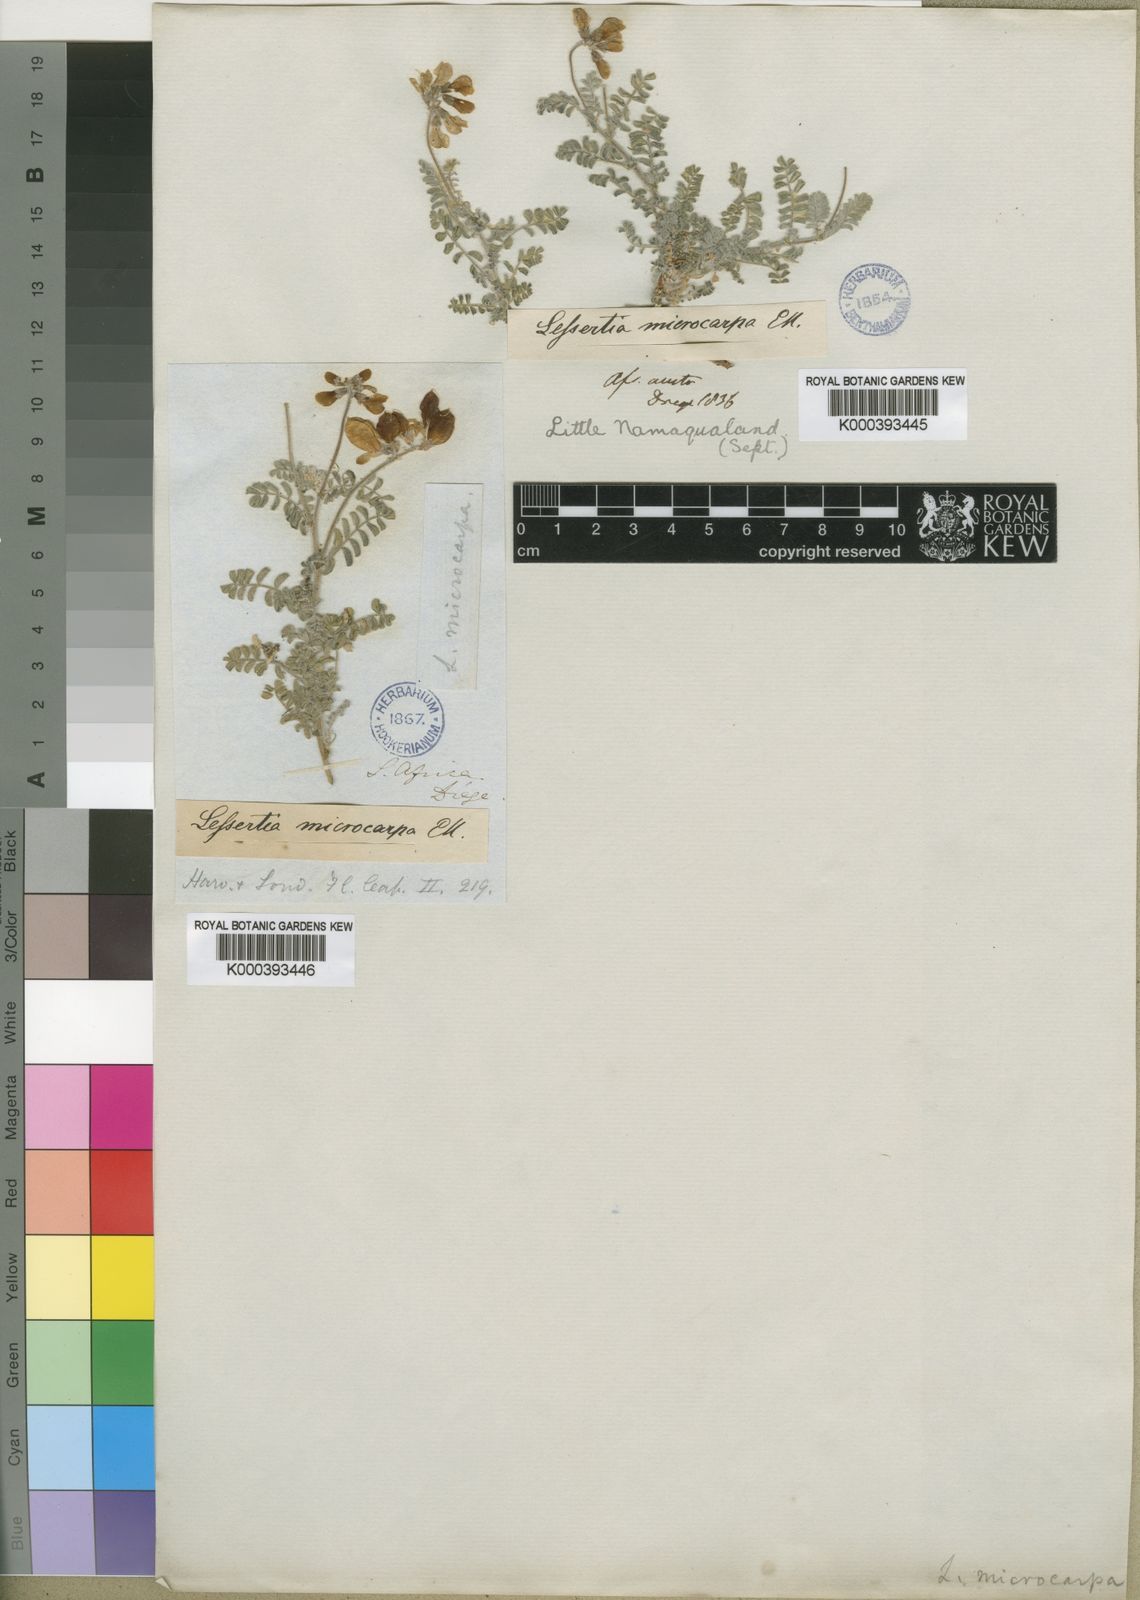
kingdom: Plantae
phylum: Tracheophyta
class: Magnoliopsida
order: Fabales
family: Fabaceae
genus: Lessertia
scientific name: Lessertia microcarpa
